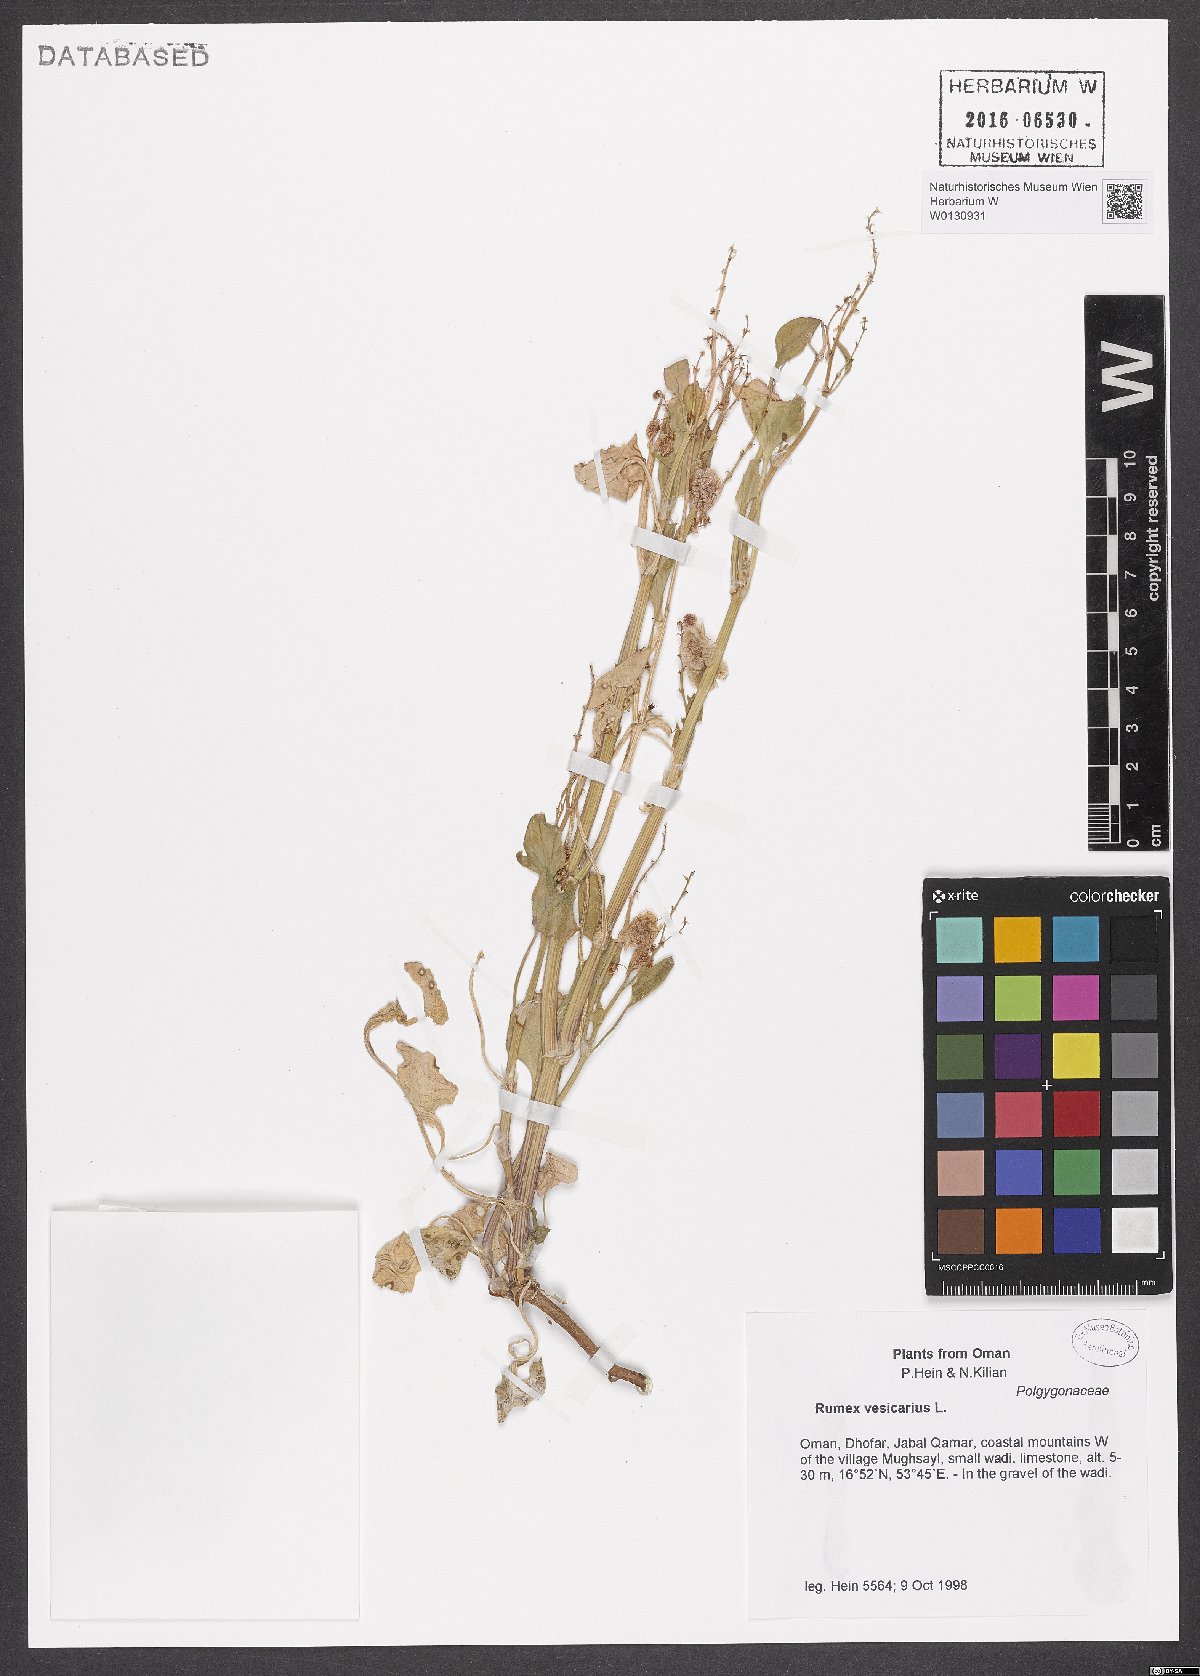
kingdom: Plantae
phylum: Tracheophyta
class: Magnoliopsida
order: Caryophyllales
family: Polygonaceae
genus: Rumex
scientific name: Rumex vesicarius
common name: Bladder dock
